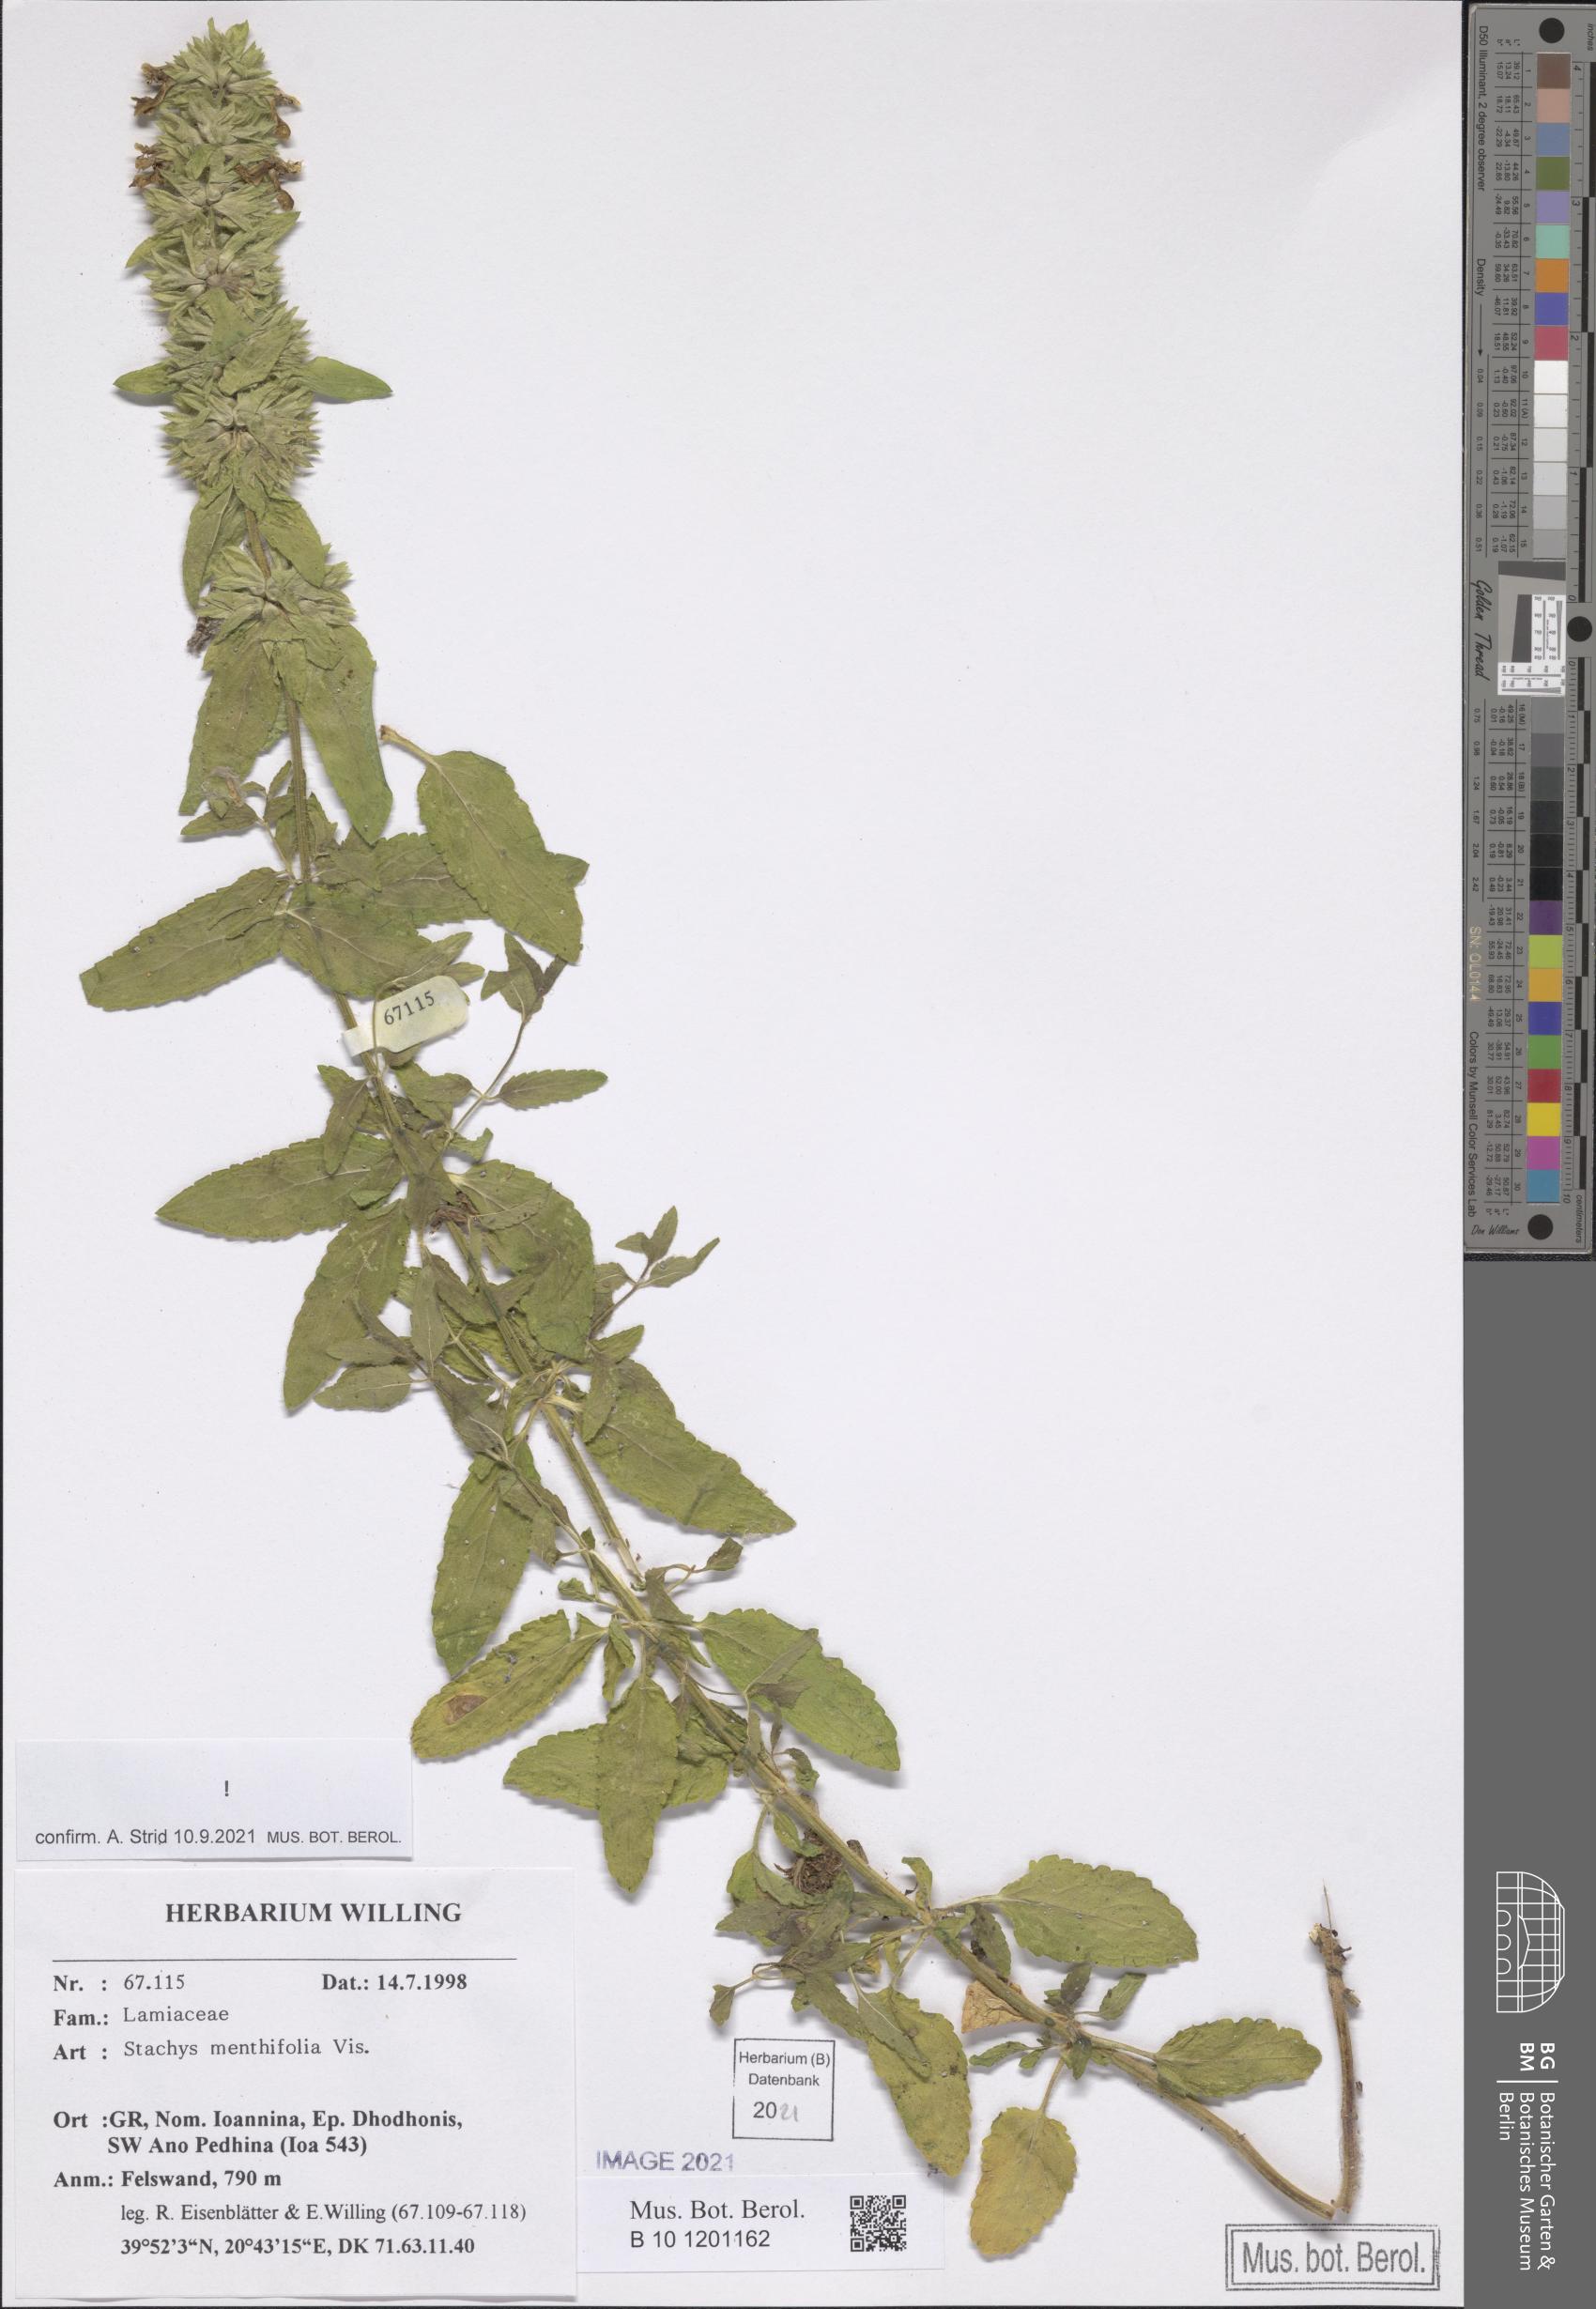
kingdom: Plantae
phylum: Tracheophyta
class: Magnoliopsida
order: Lamiales
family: Lamiaceae
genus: Stachys
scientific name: Stachys menthifolia
